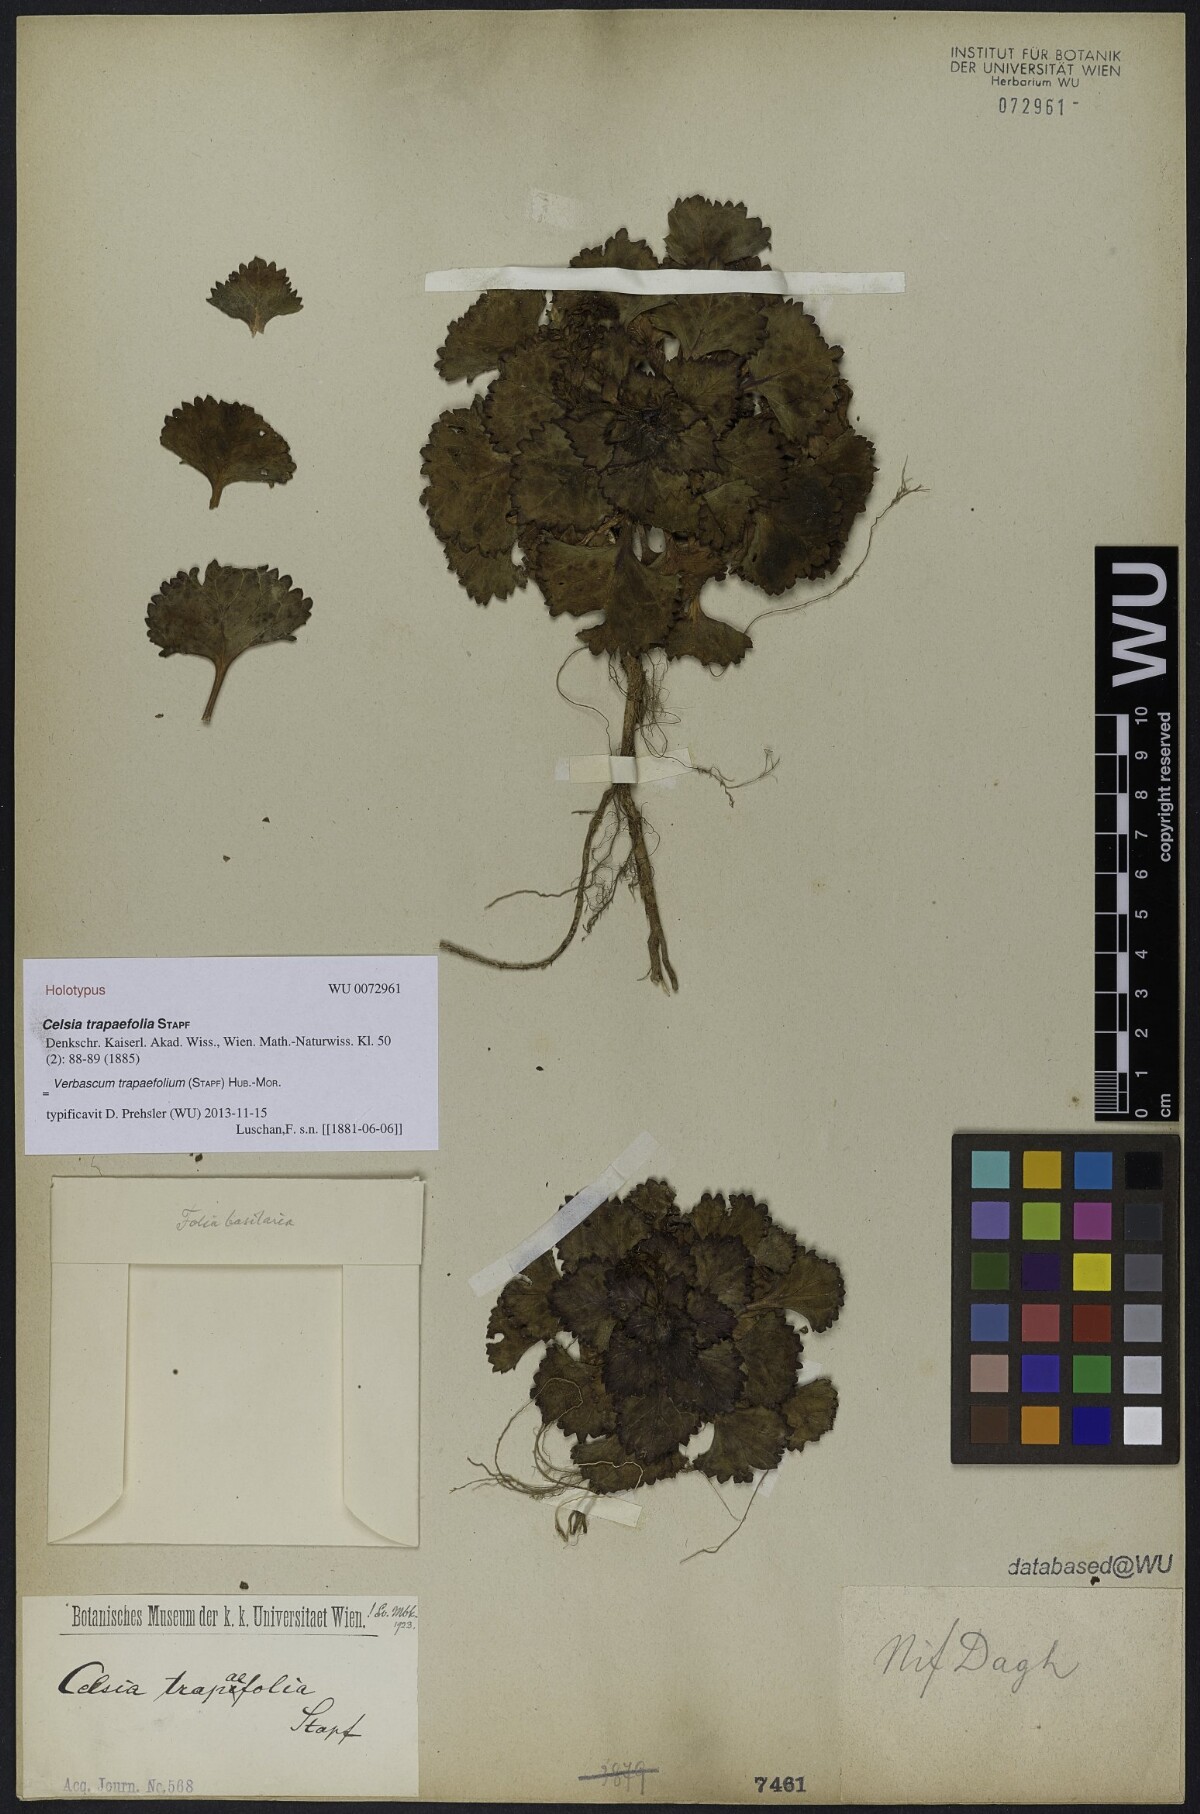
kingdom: Plantae
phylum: Tracheophyta
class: Magnoliopsida
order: Lamiales
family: Scrophulariaceae
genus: Verbascum
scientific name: Verbascum Celsia trapaefolia
